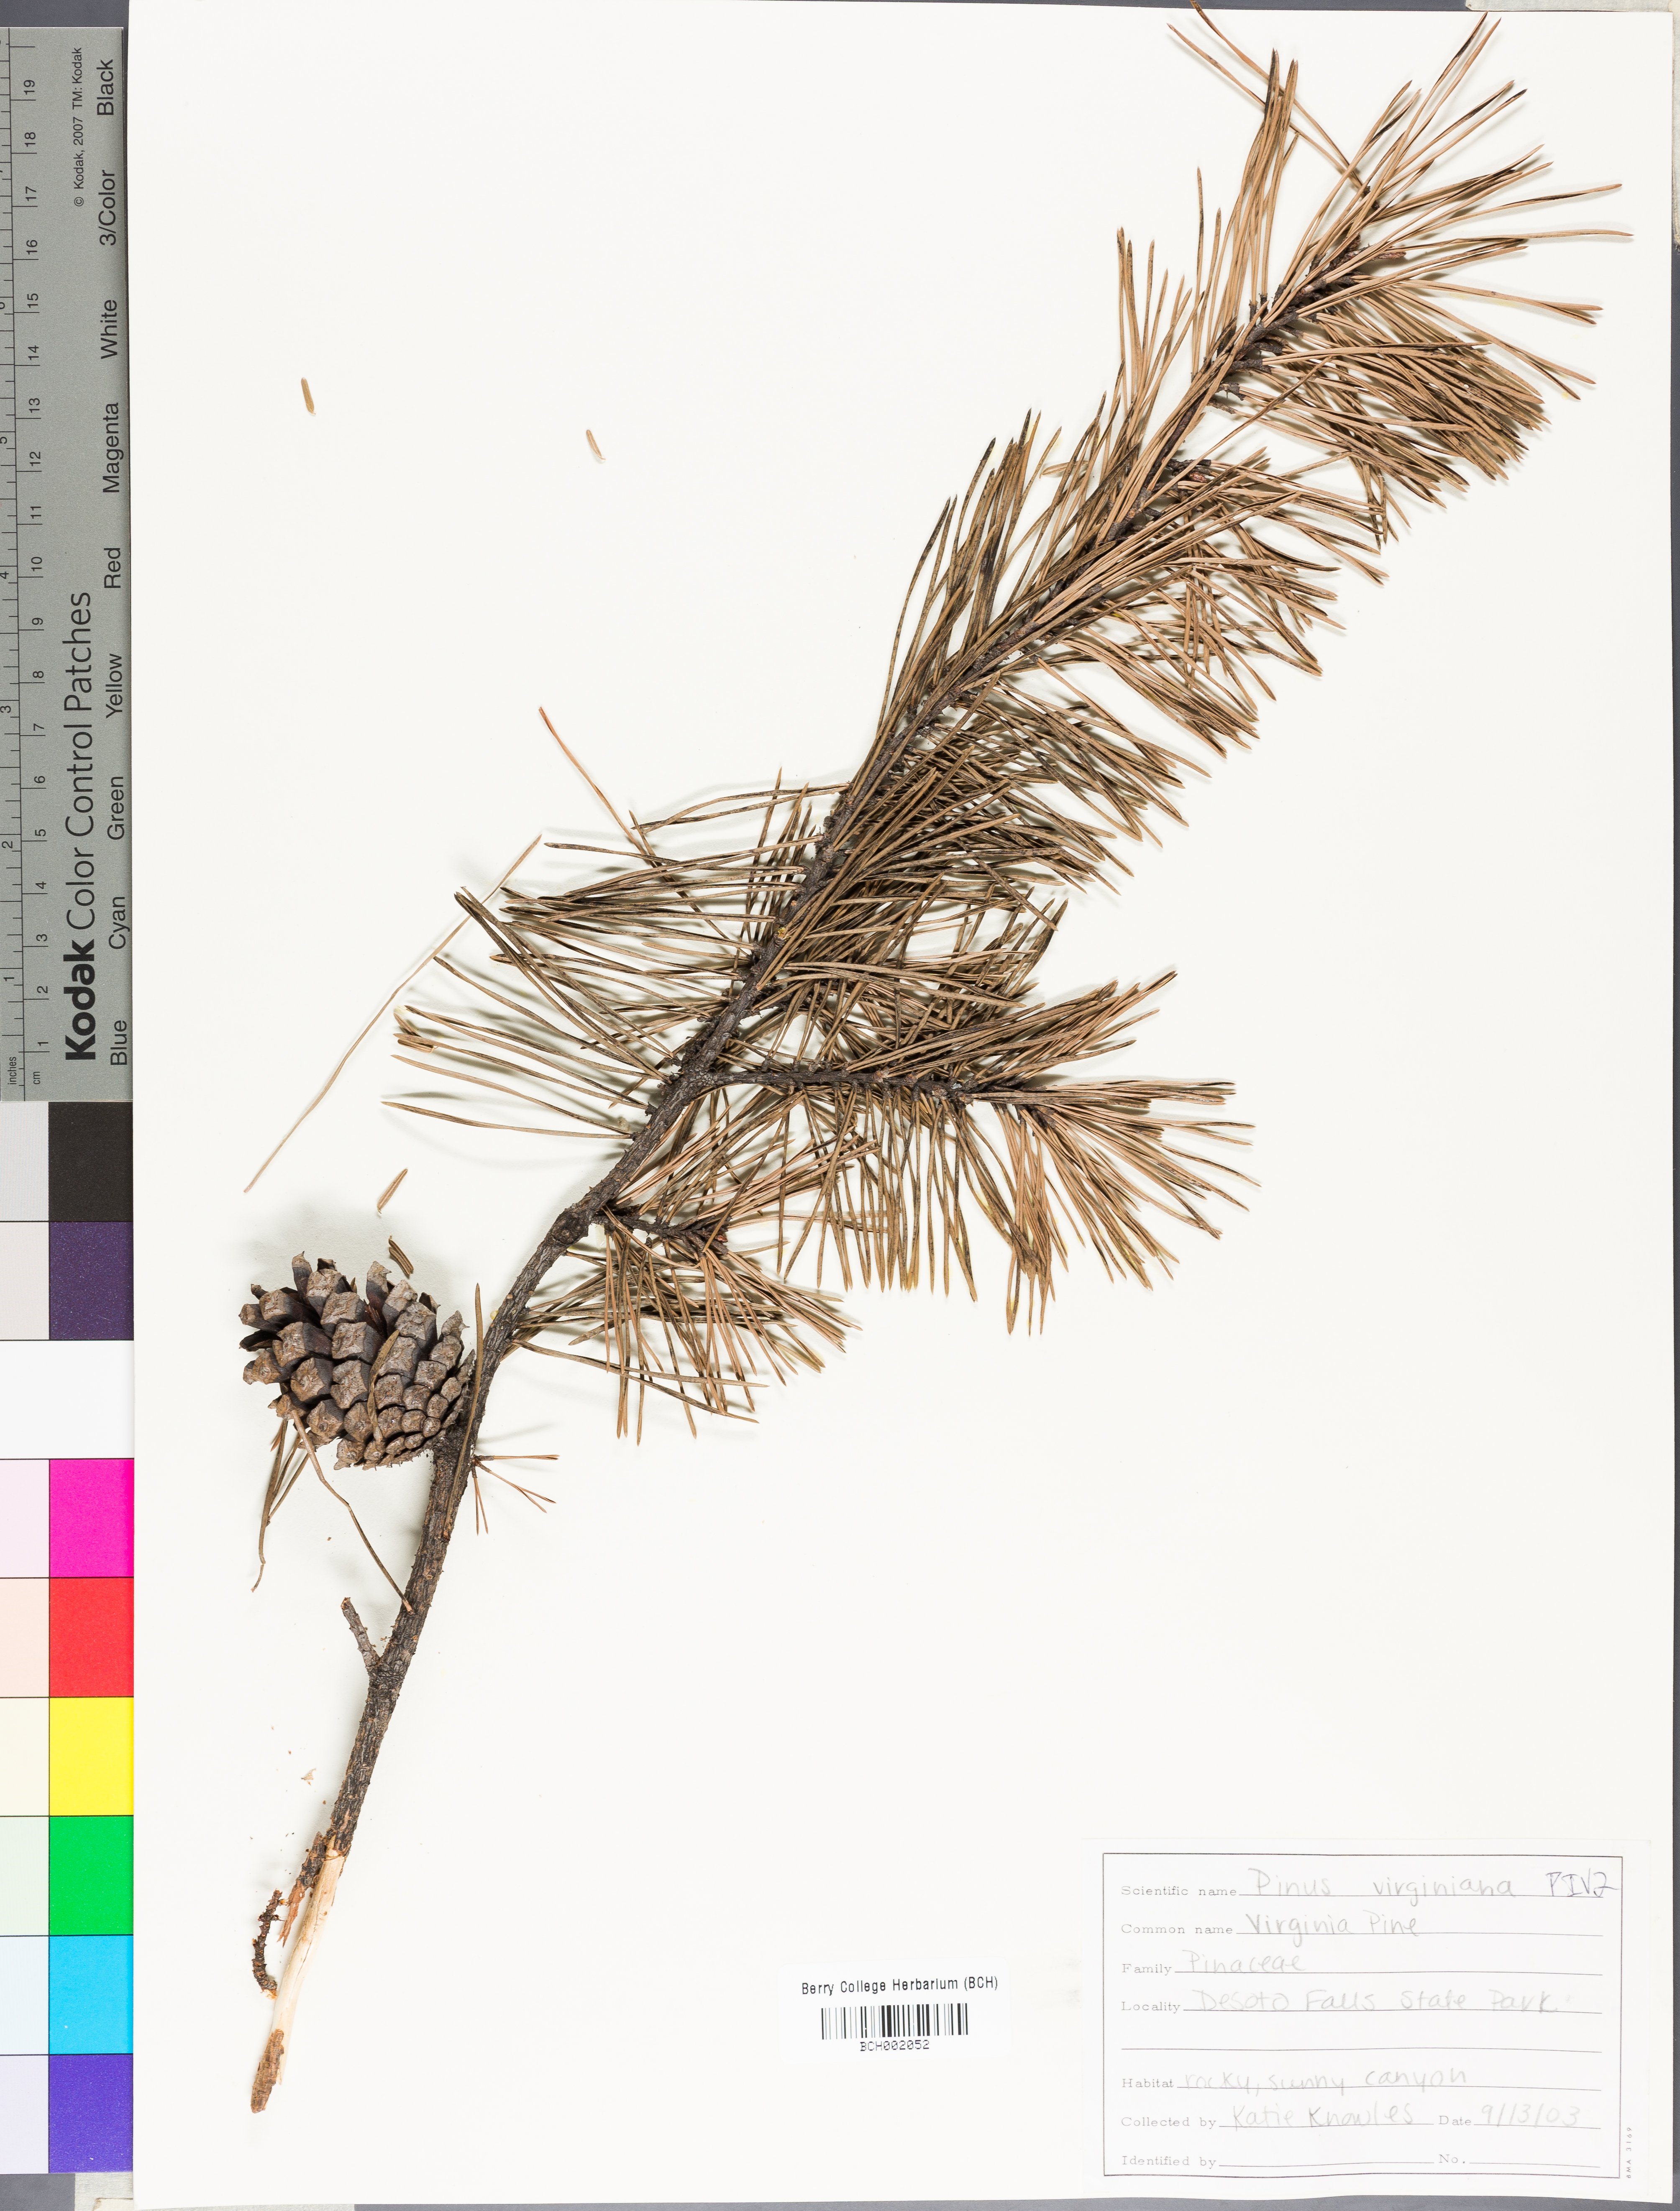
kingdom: Plantae
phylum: Tracheophyta
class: Pinopsida
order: Pinales
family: Pinaceae
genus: Pinus
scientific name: Pinus virginiana
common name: Scrub pine
